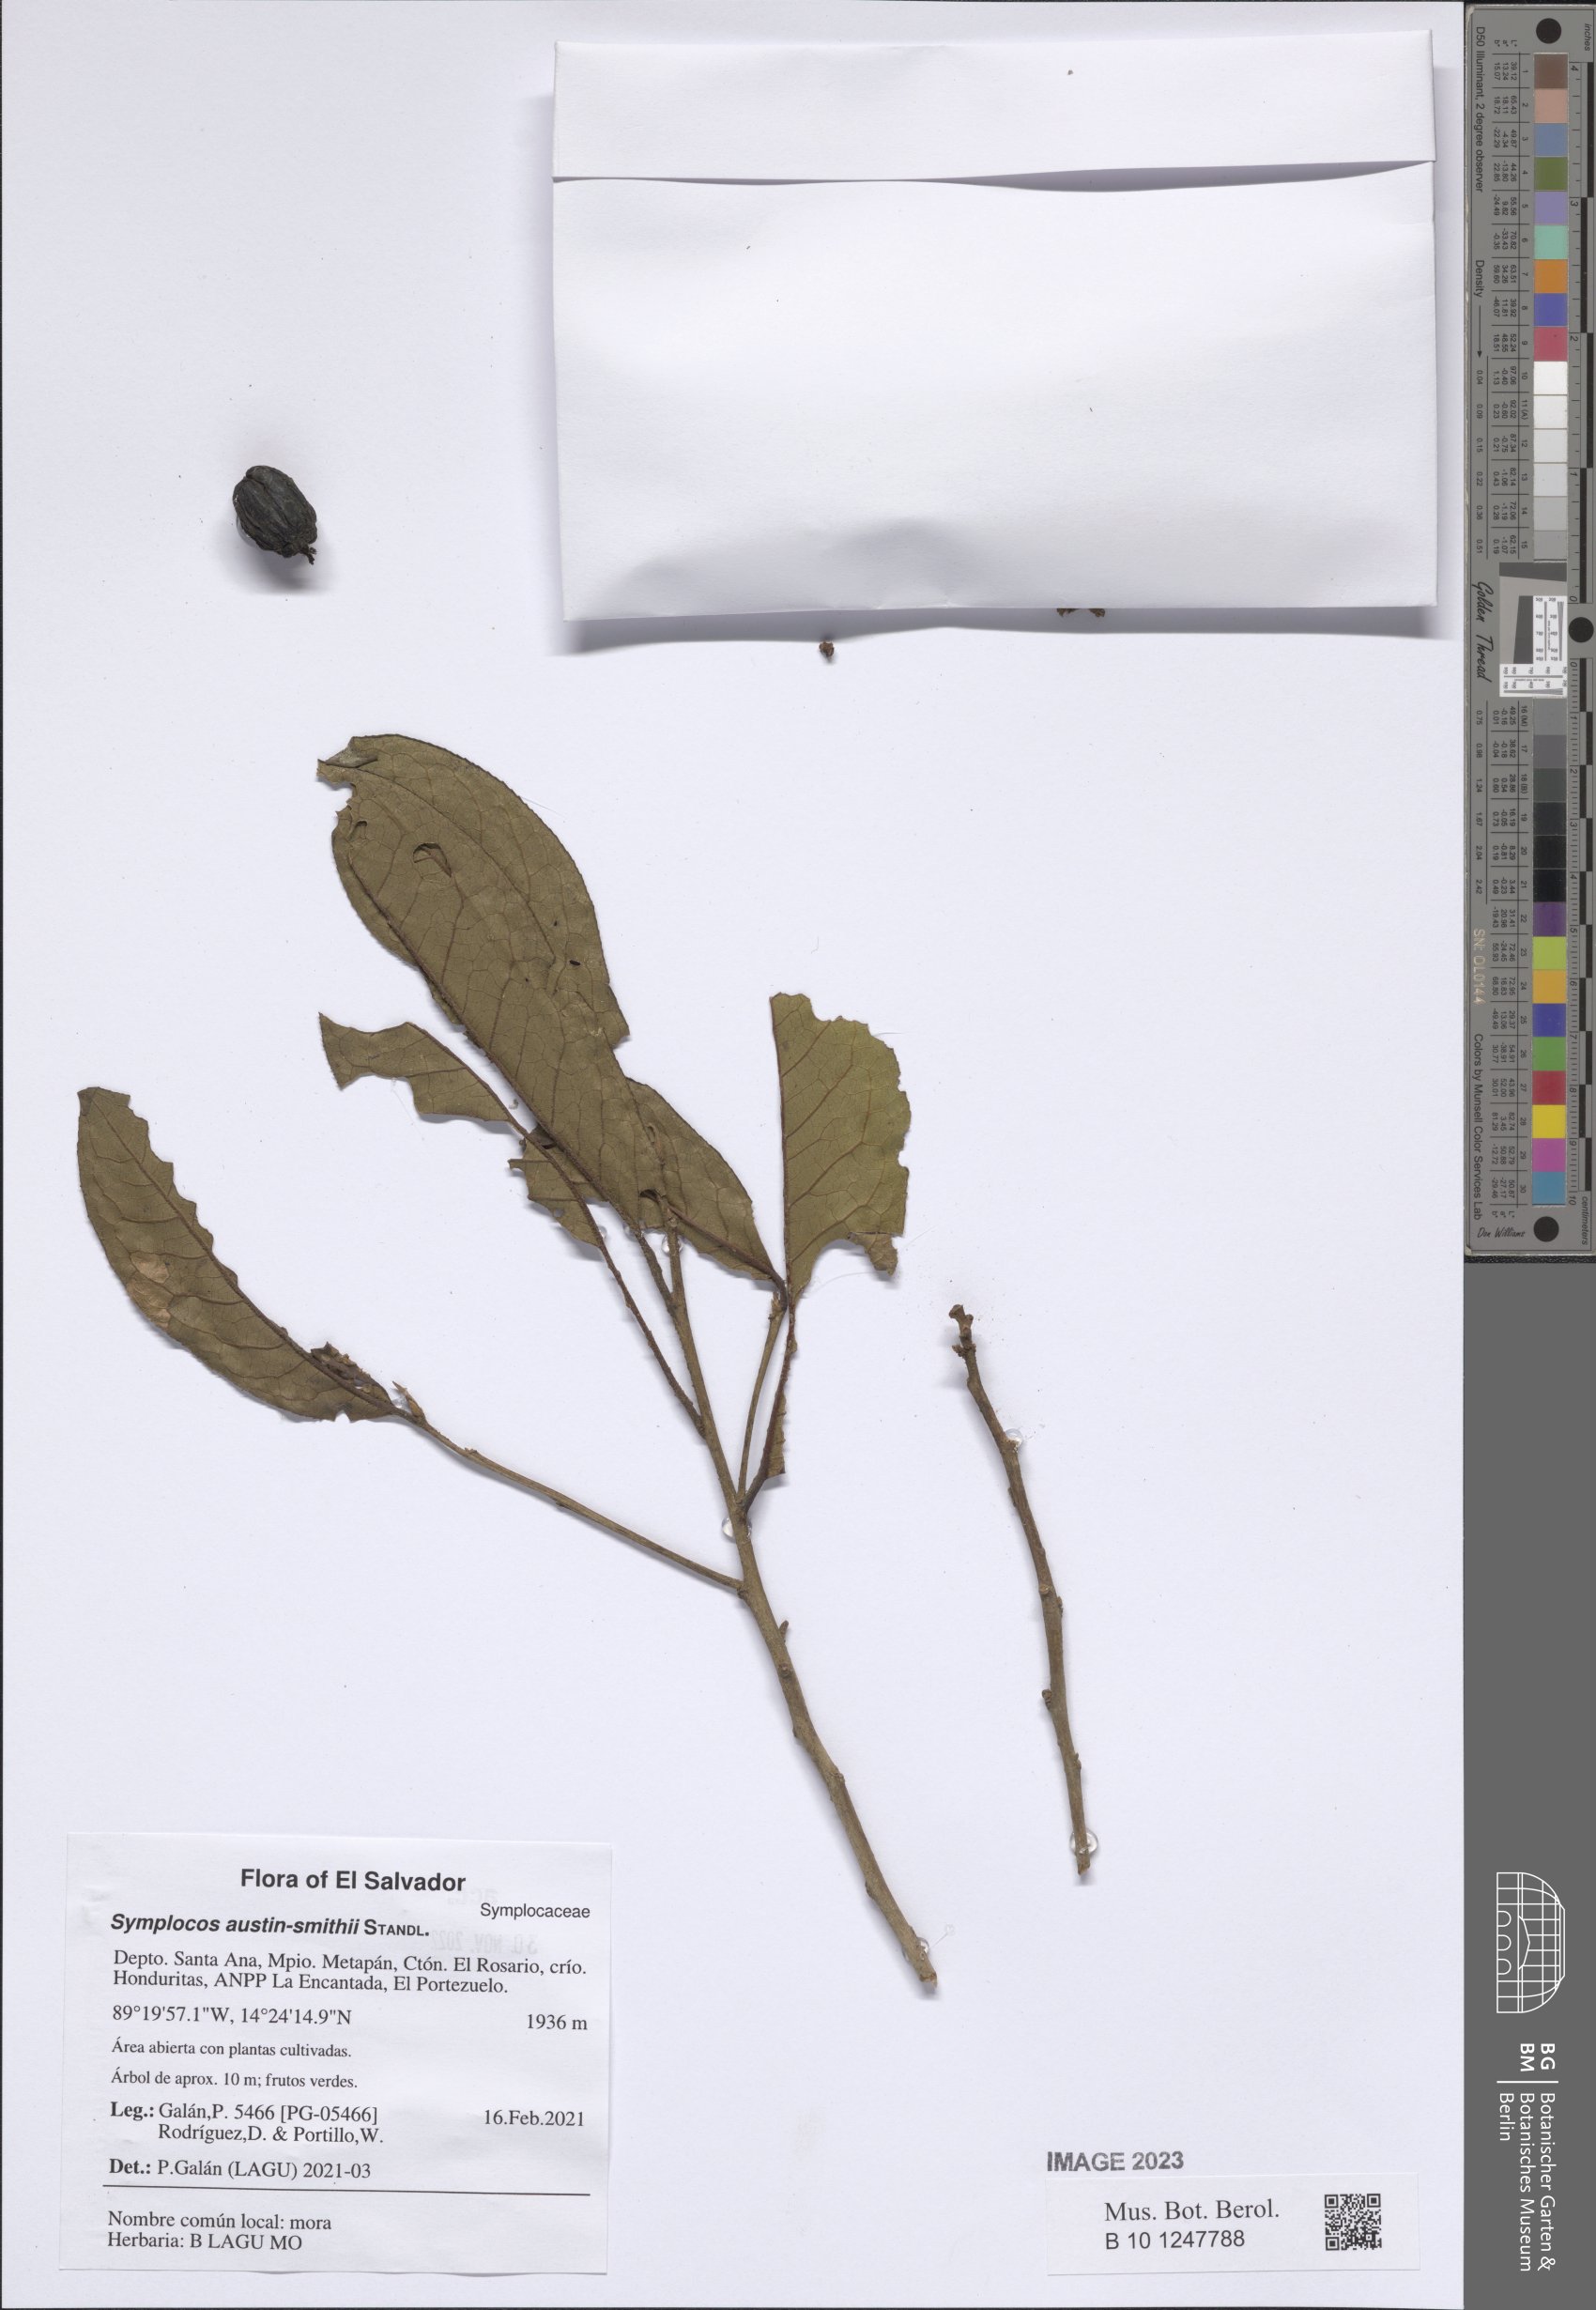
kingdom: Plantae
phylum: Tracheophyta
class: Magnoliopsida
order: Ericales
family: Symplocaceae
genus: Symplocos
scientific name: Symplocos austin-smithii
